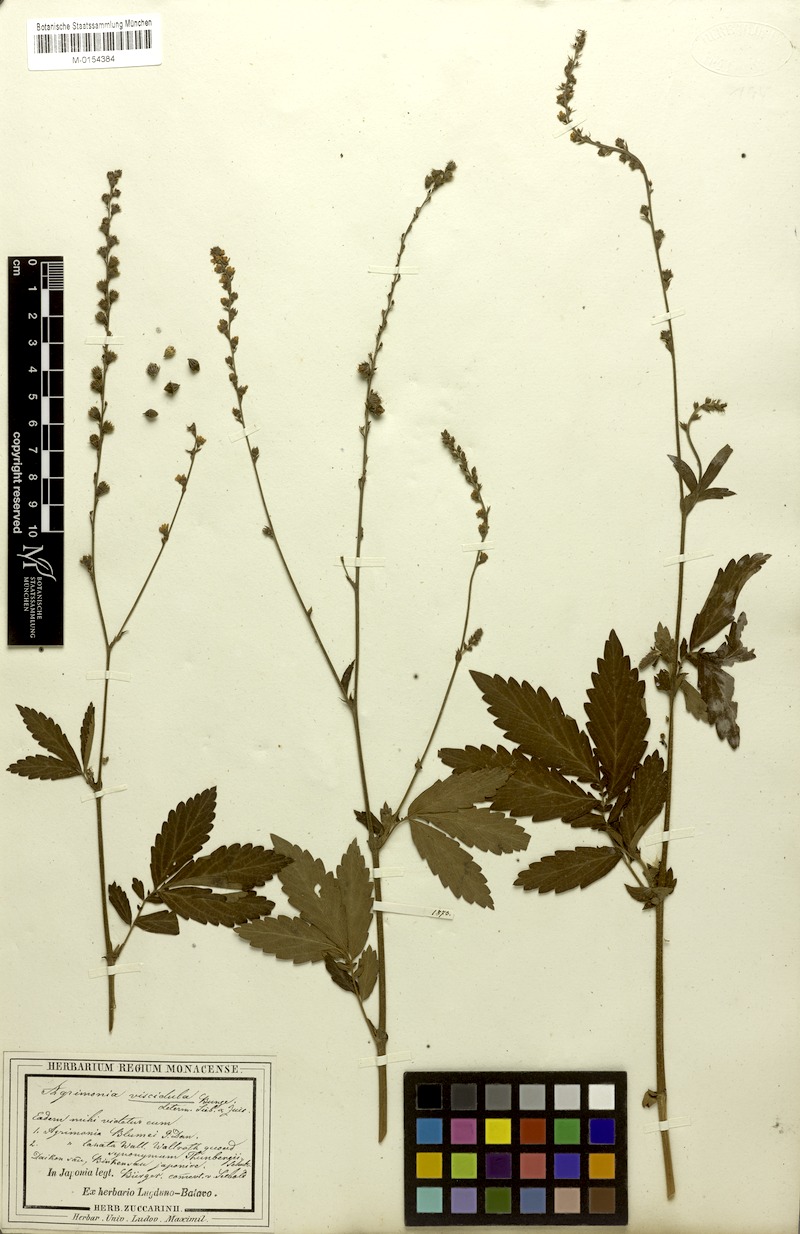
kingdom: Plantae
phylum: Tracheophyta
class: Magnoliopsida
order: Rosales
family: Rosaceae
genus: Agrimonia
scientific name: Agrimonia pilosa
